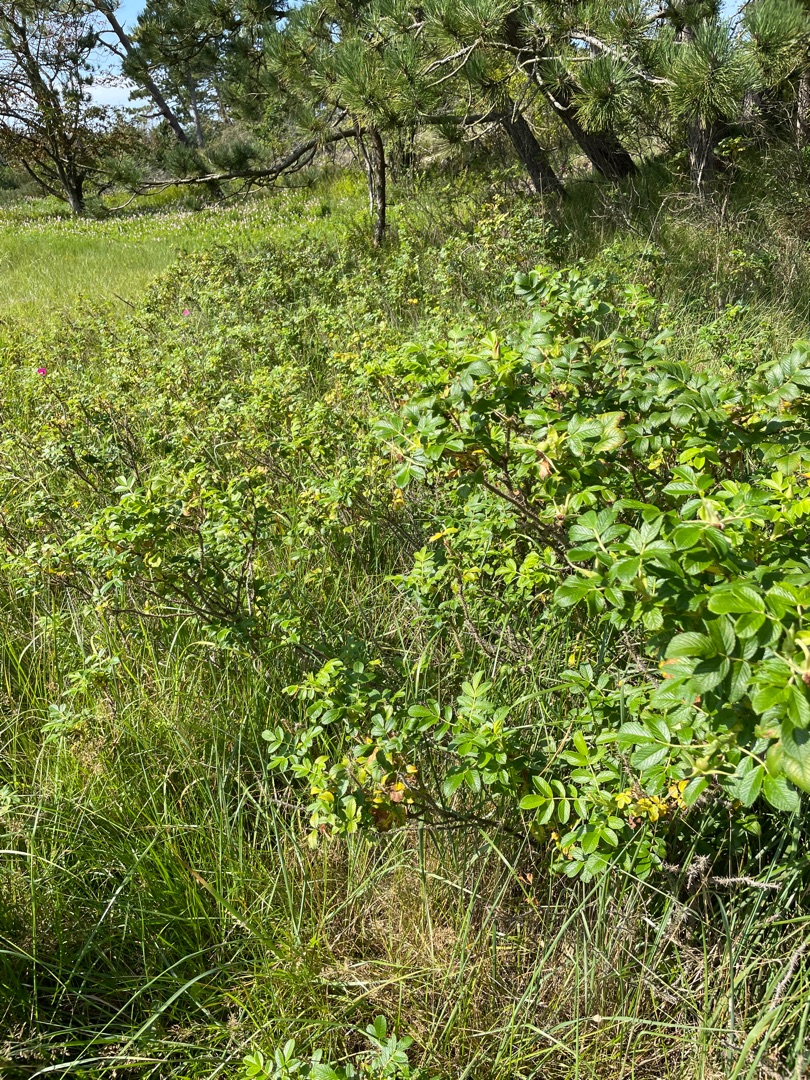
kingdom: Plantae
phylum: Tracheophyta
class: Magnoliopsida
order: Rosales
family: Rosaceae
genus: Rosa
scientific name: Rosa rugosa
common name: Rynket rose
